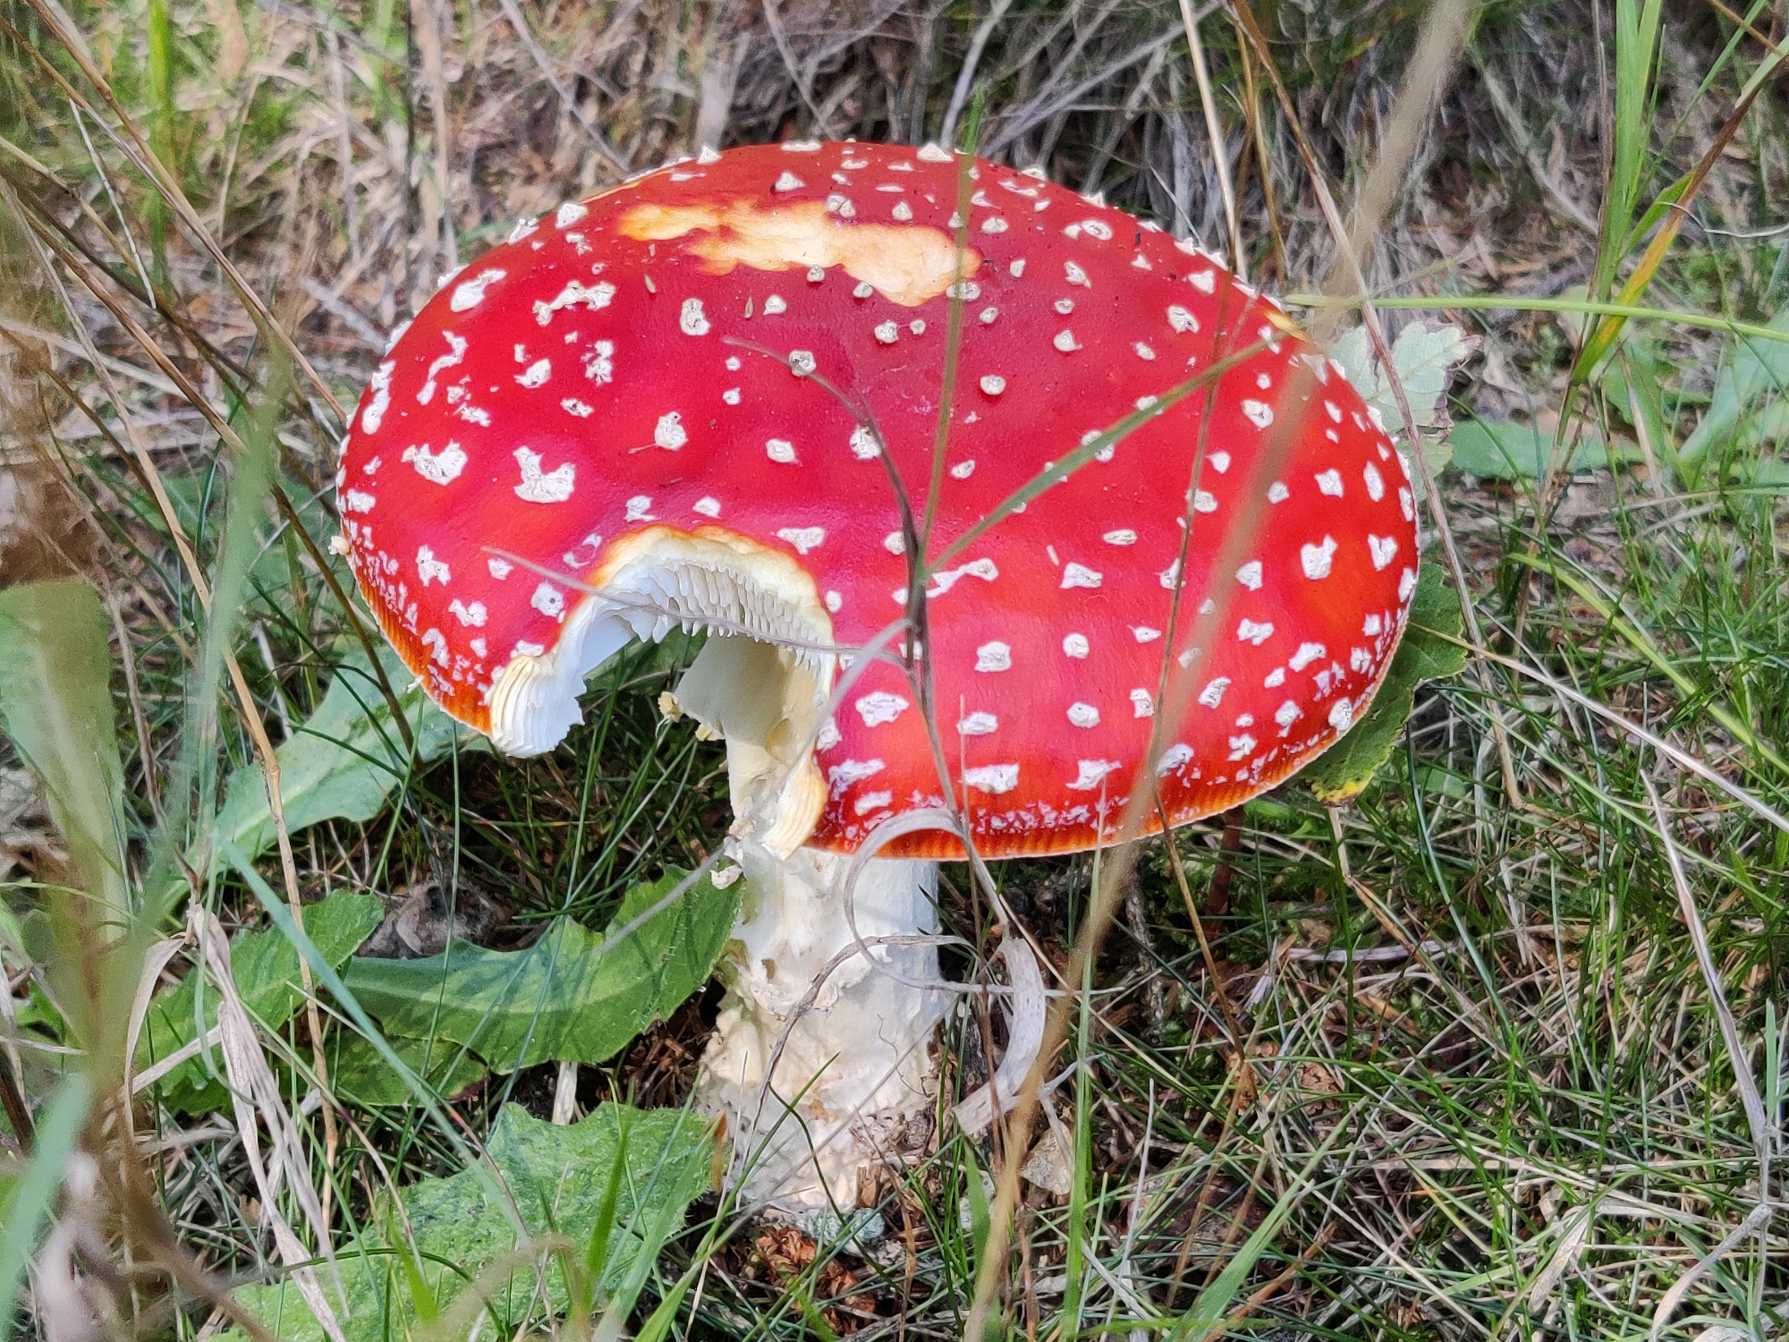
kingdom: Fungi
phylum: Basidiomycota
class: Agaricomycetes
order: Agaricales
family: Amanitaceae
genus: Amanita
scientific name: Amanita muscaria
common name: Rød fluesvamp
